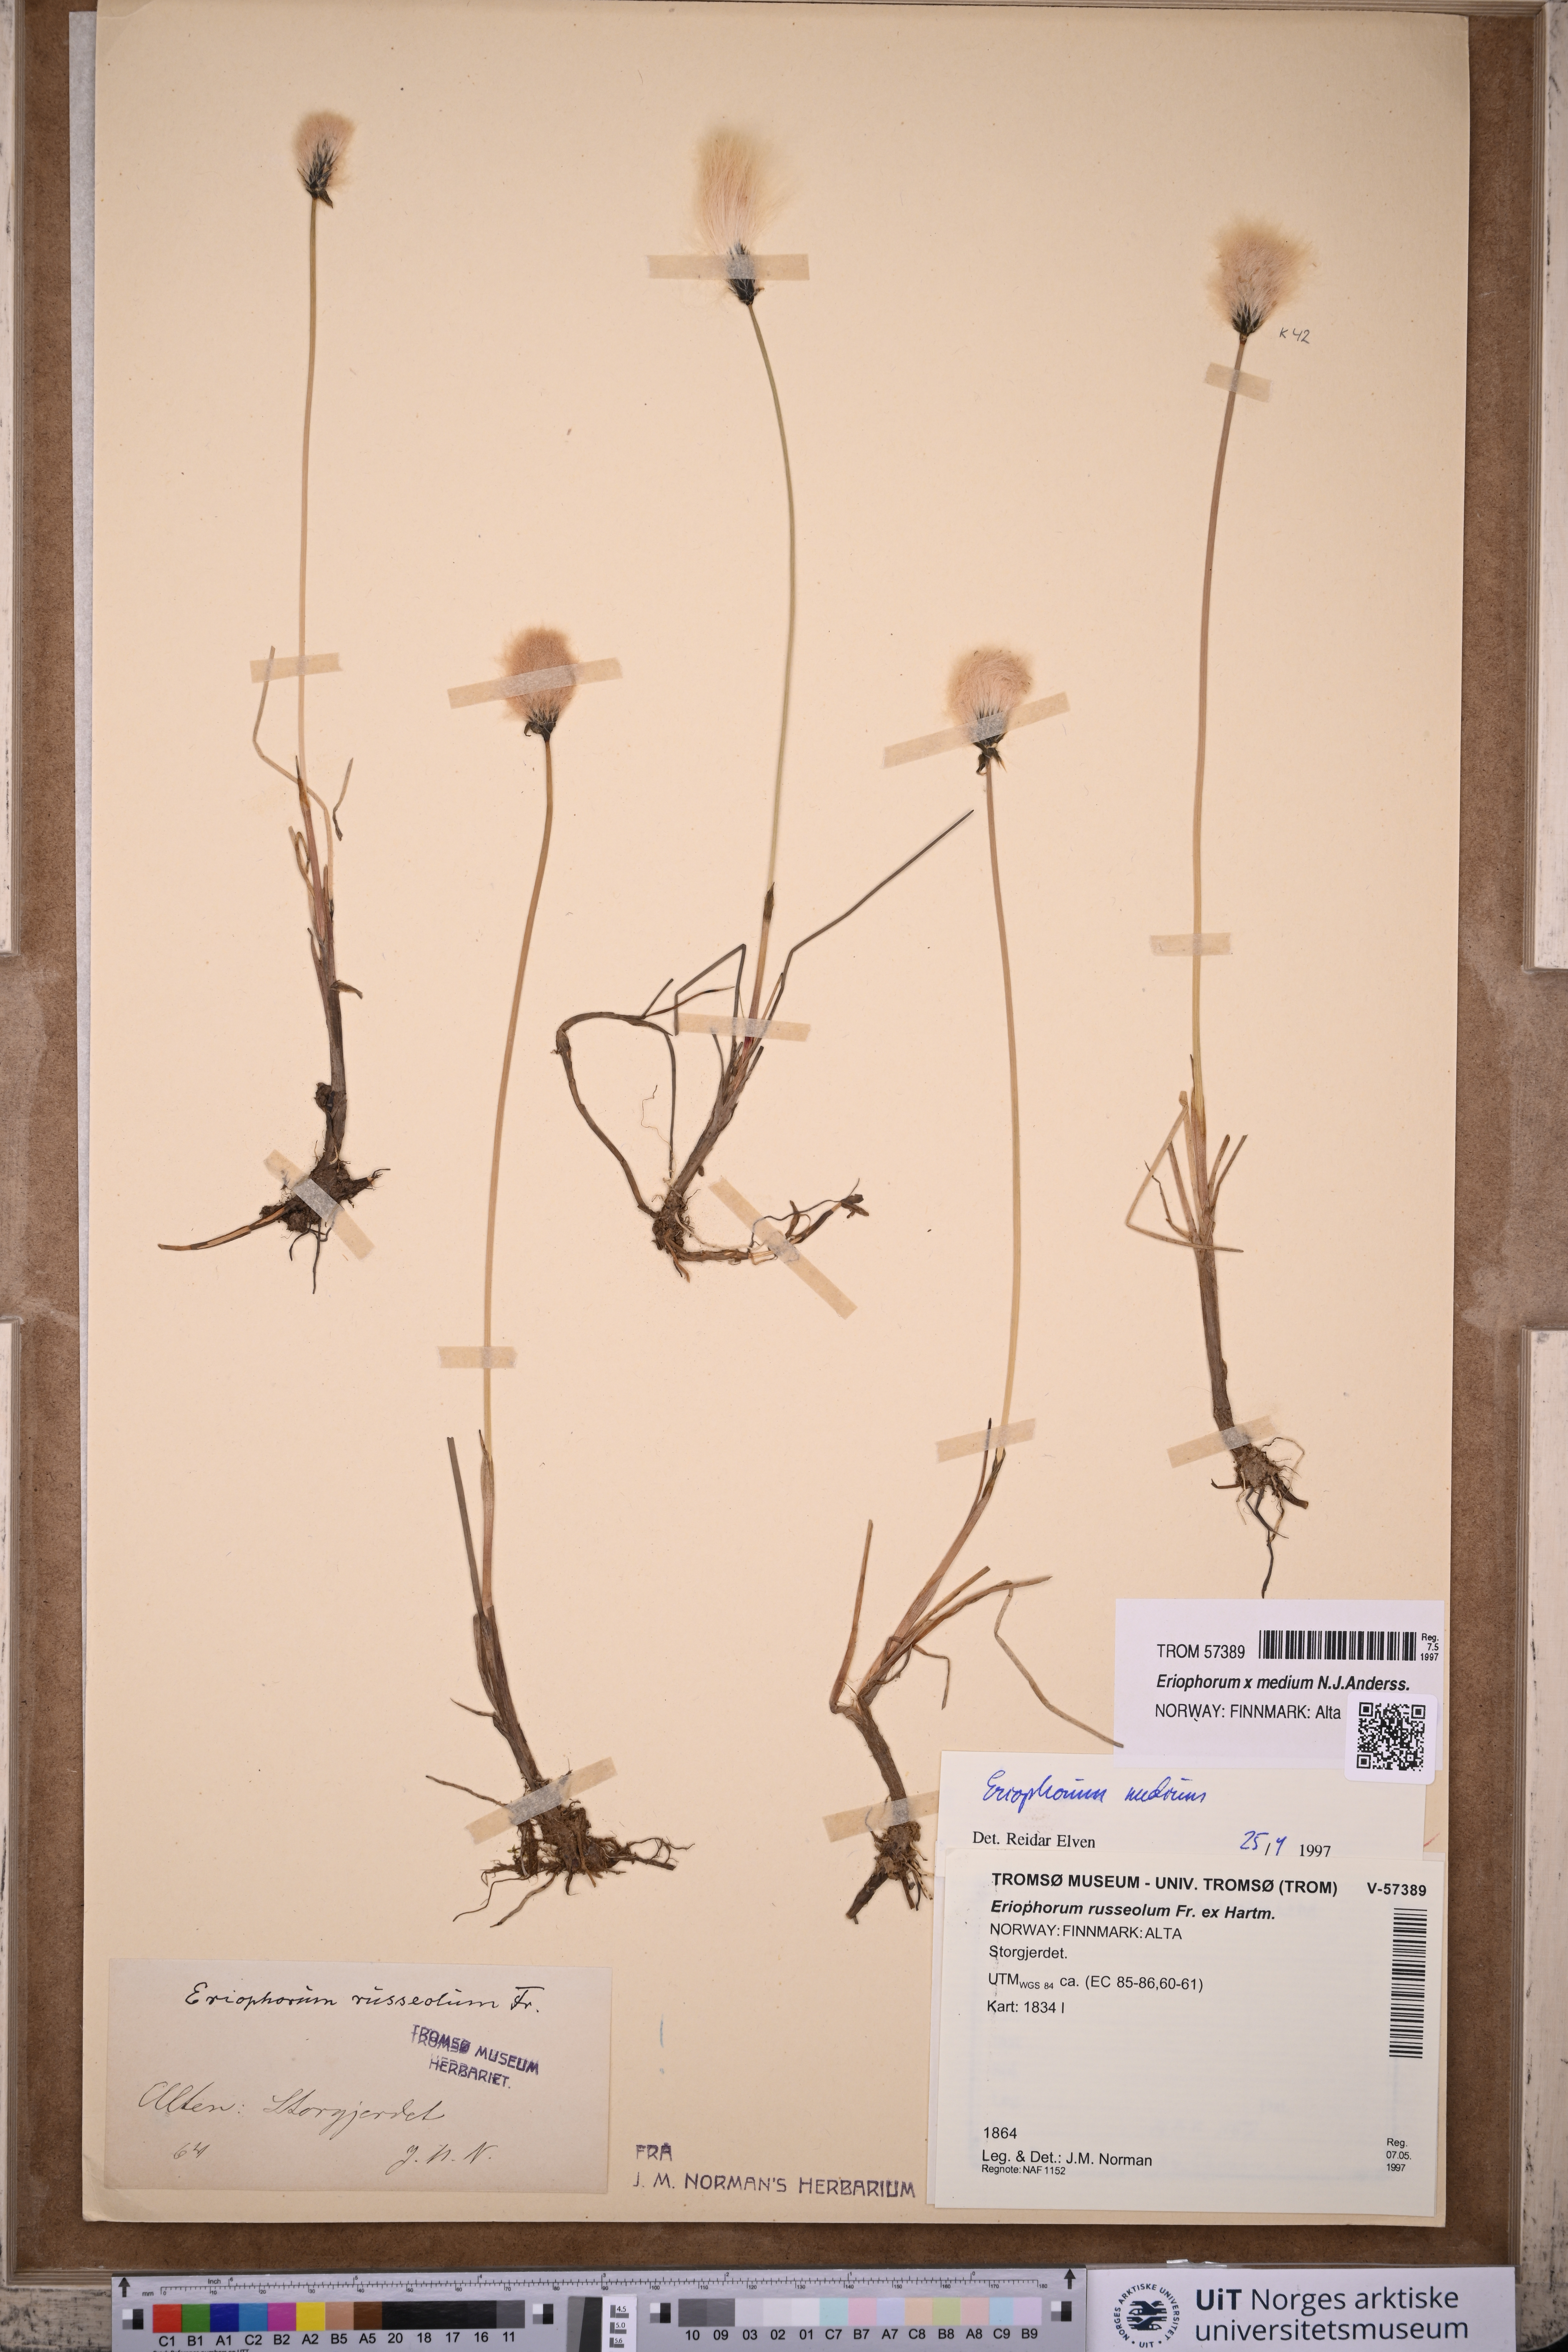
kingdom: Plantae
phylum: Tracheophyta
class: Liliopsida
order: Poales
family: Cyperaceae
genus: Eriophorum
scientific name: Eriophorum medium
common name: Intermediate cottongrass
